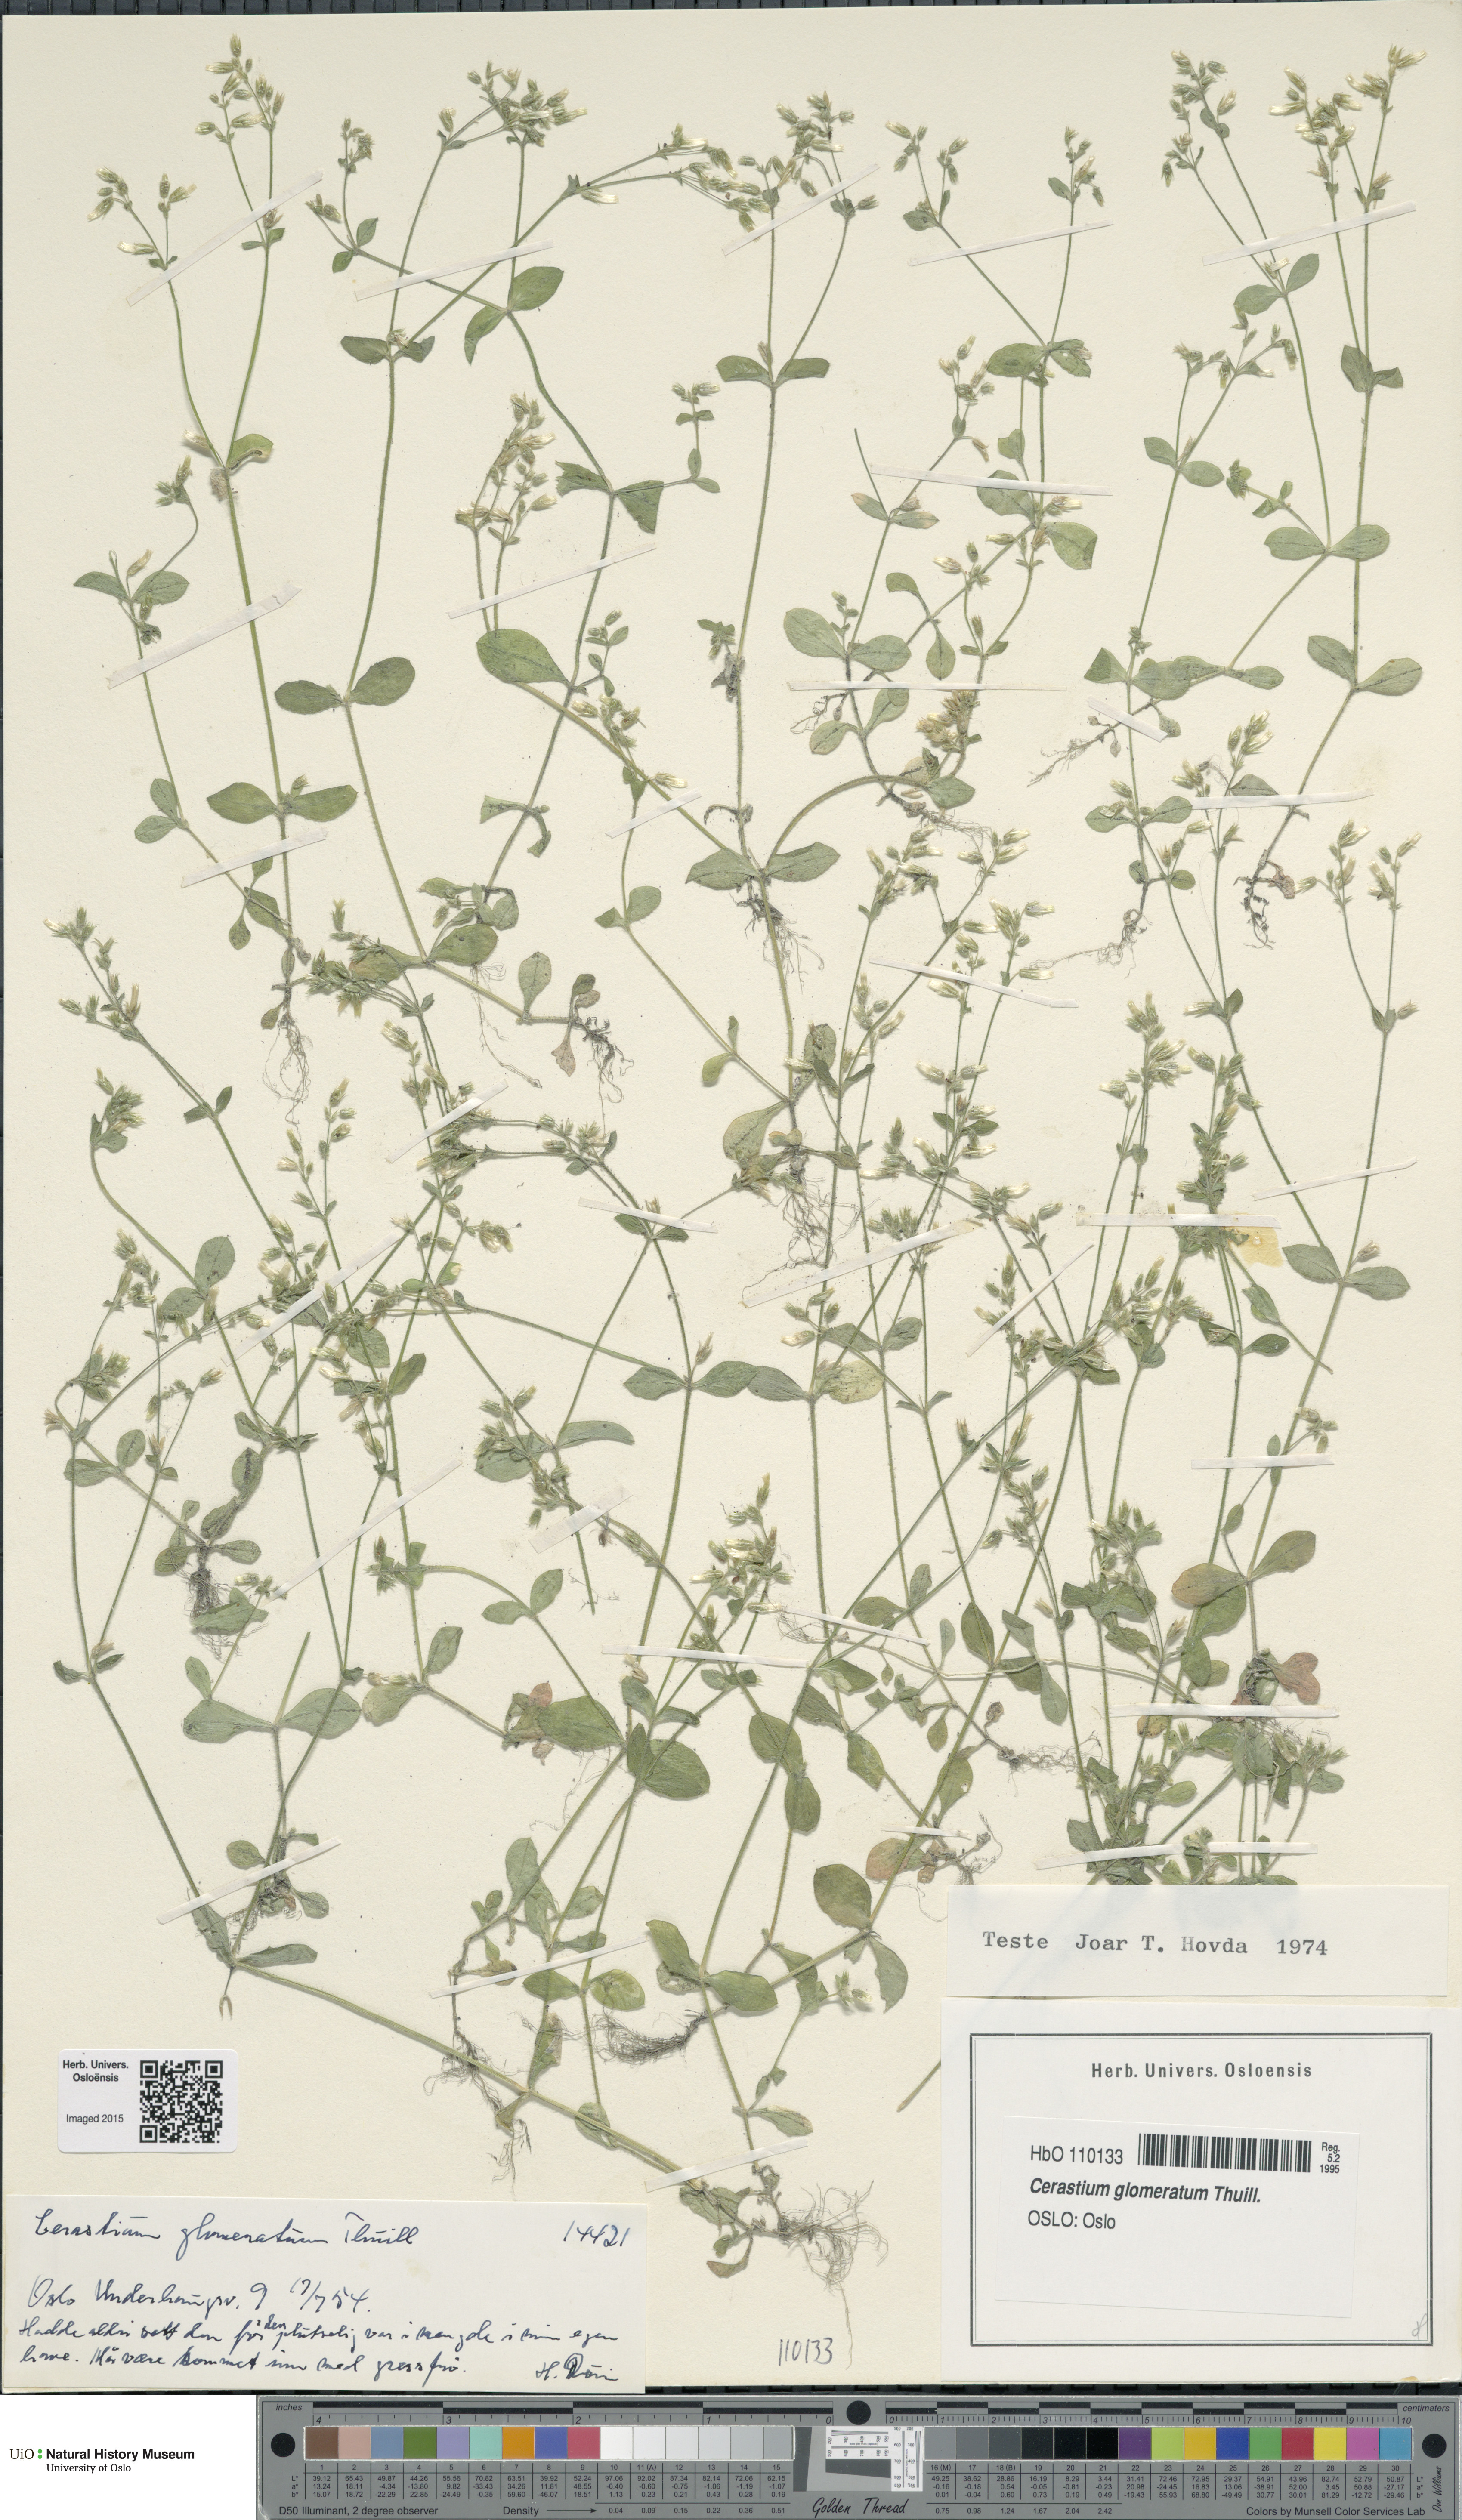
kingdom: Plantae
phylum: Tracheophyta
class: Magnoliopsida
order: Caryophyllales
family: Caryophyllaceae
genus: Cerastium
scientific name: Cerastium glomeratum
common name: Sticky chickweed
